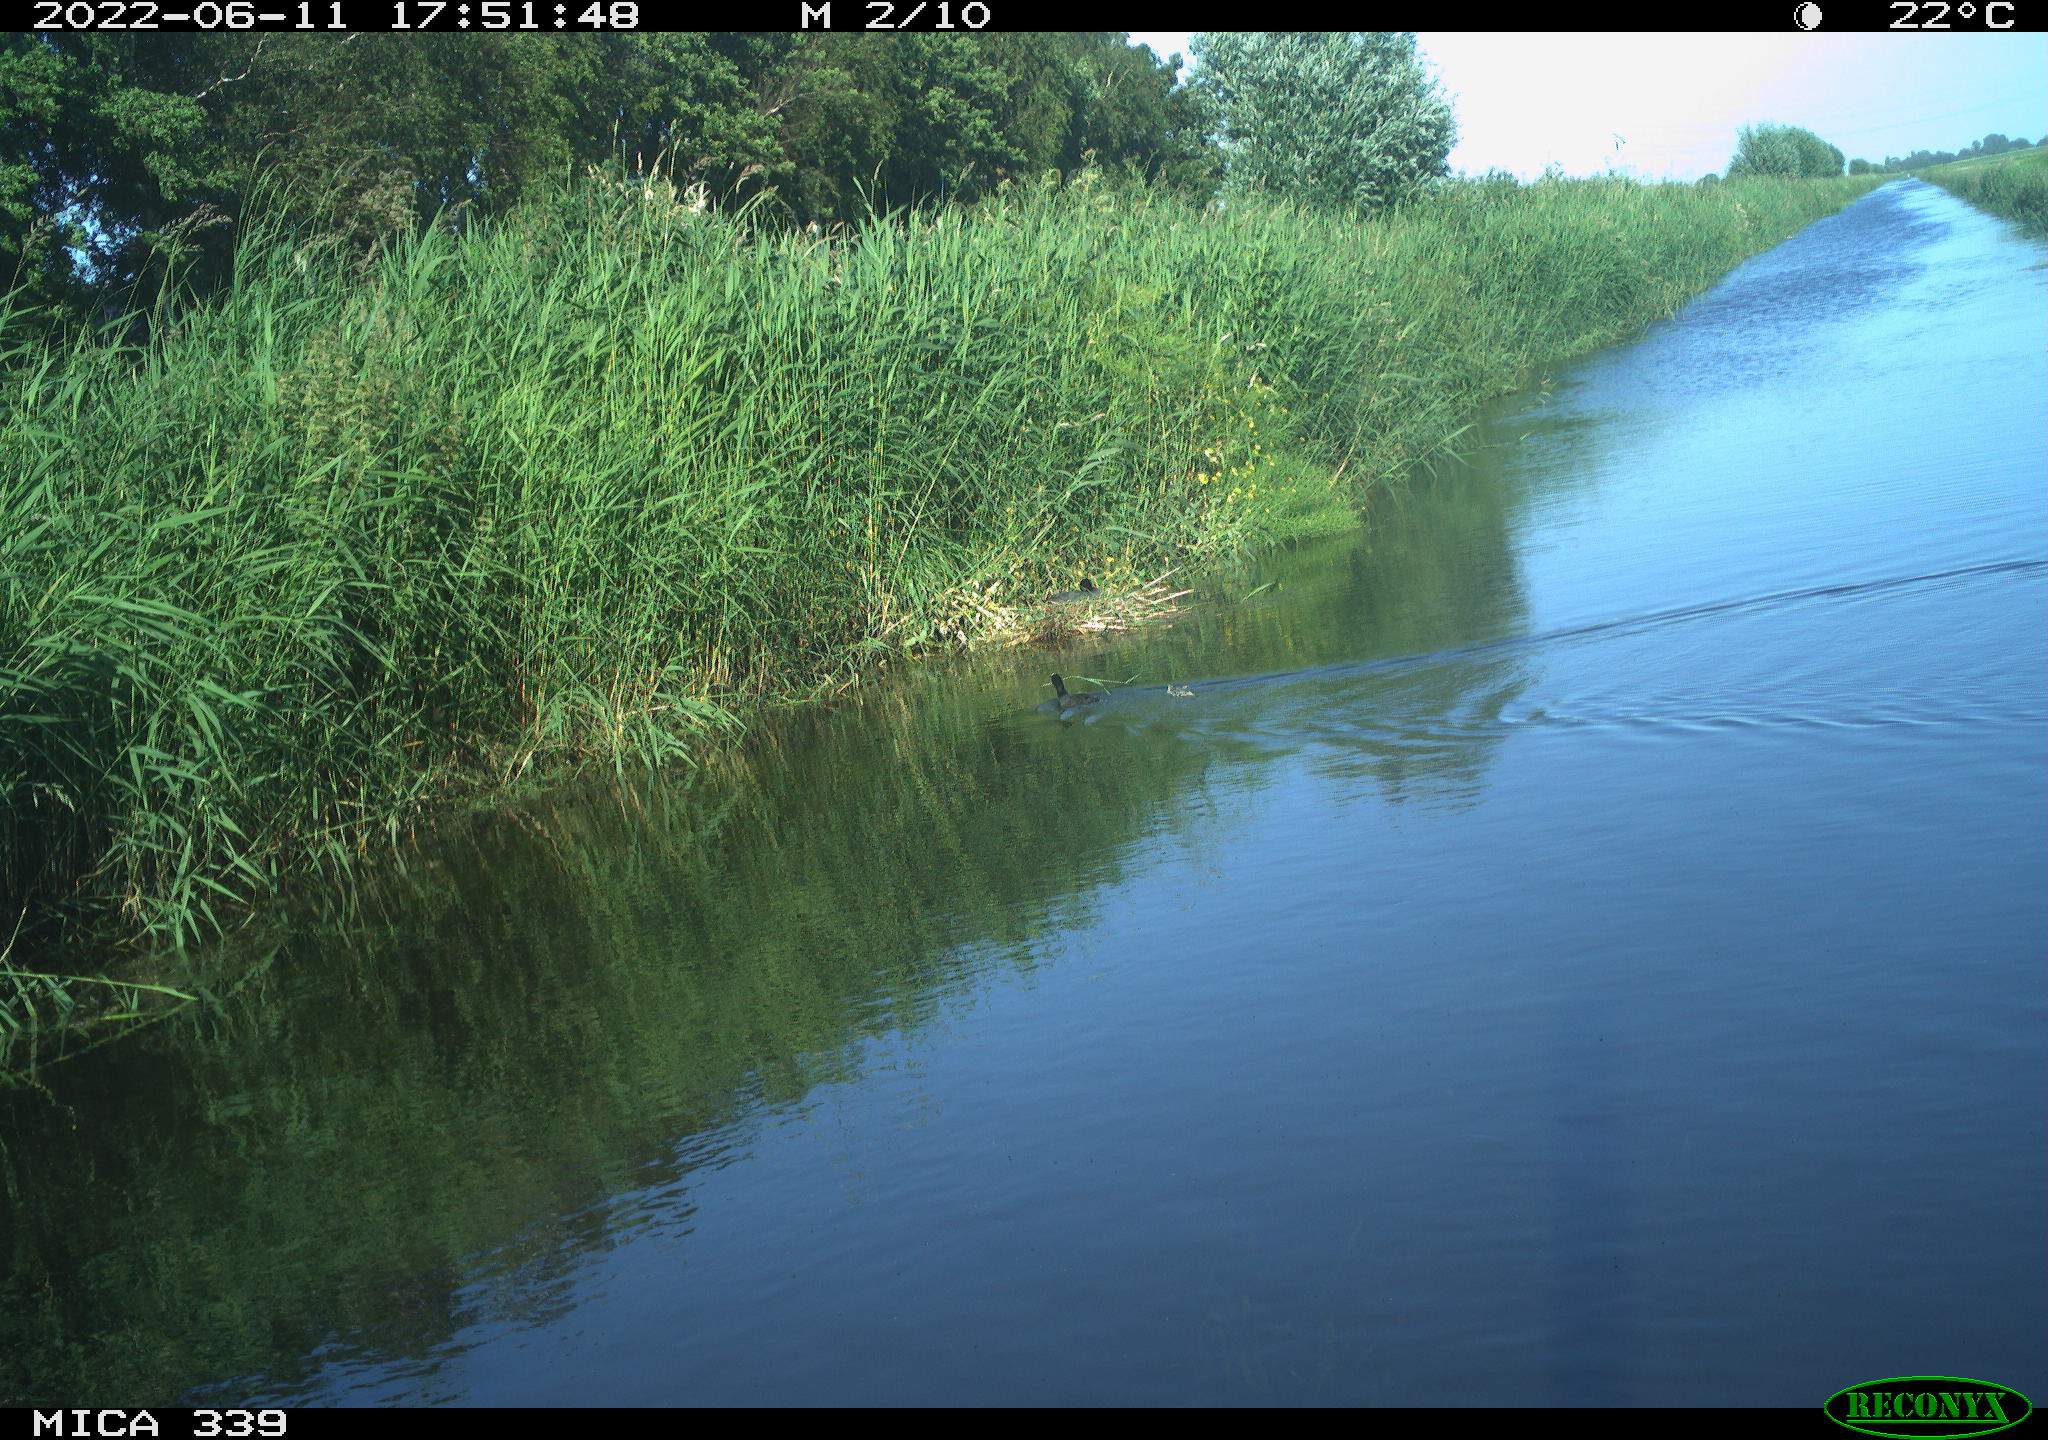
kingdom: Animalia
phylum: Chordata
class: Aves
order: Gruiformes
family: Rallidae
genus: Fulica
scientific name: Fulica atra
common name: Eurasian coot
